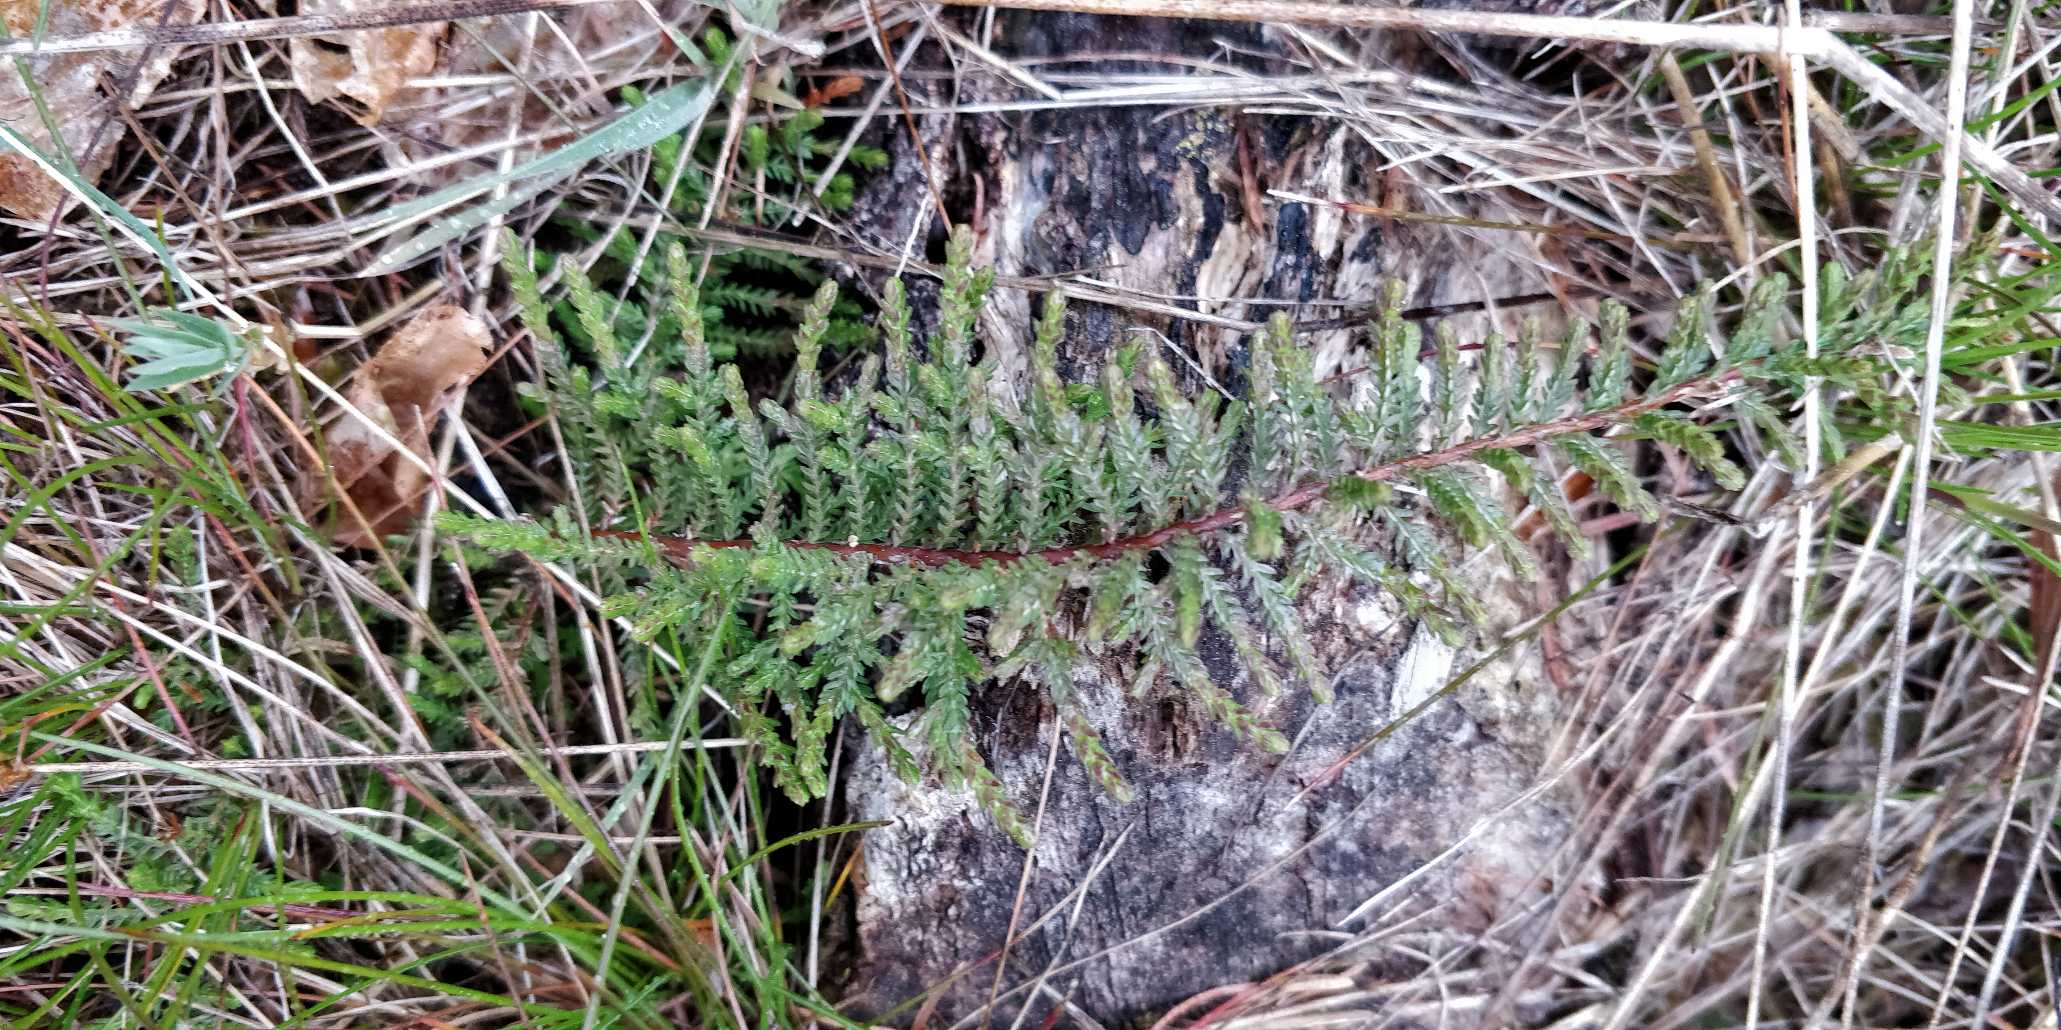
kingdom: Plantae
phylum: Tracheophyta
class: Magnoliopsida
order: Ericales
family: Ericaceae
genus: Calluna
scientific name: Calluna vulgaris
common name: Hedelyng
